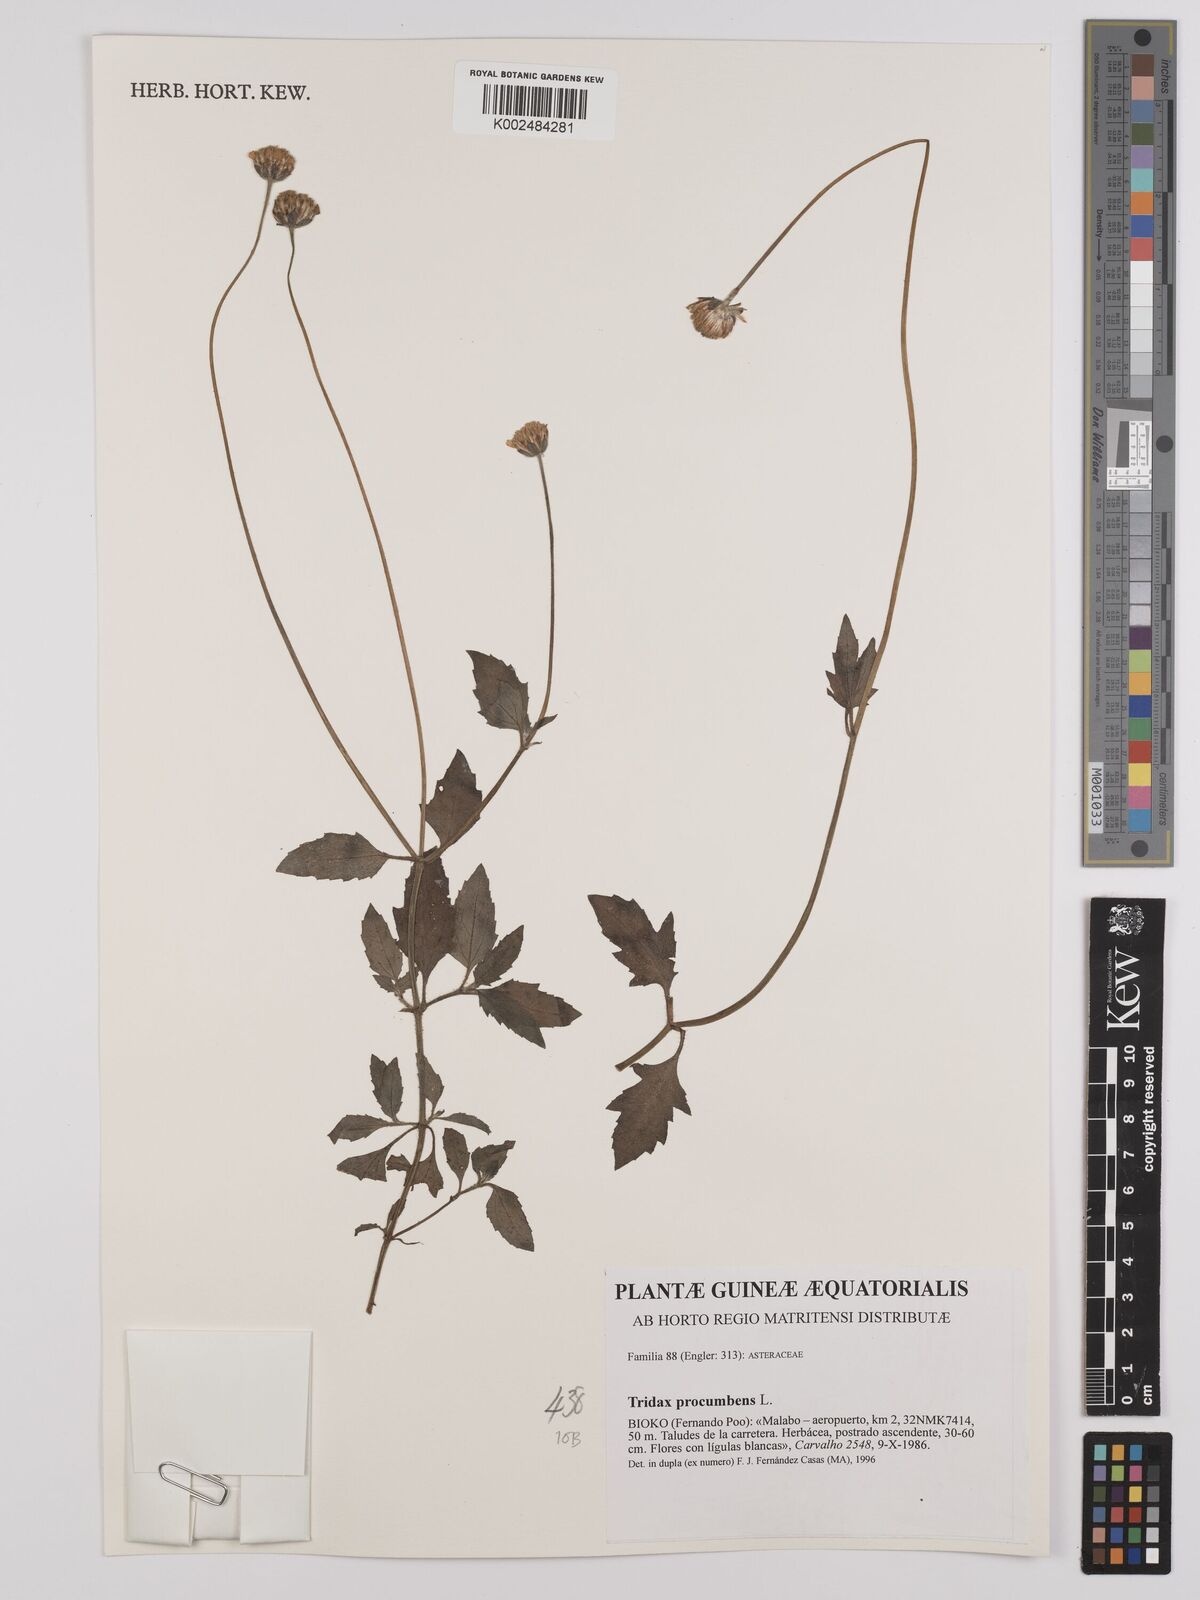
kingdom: Plantae
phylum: Tracheophyta
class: Magnoliopsida
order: Asterales
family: Asteraceae
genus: Tridax
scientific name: Tridax procumbens
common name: Coatbuttons
